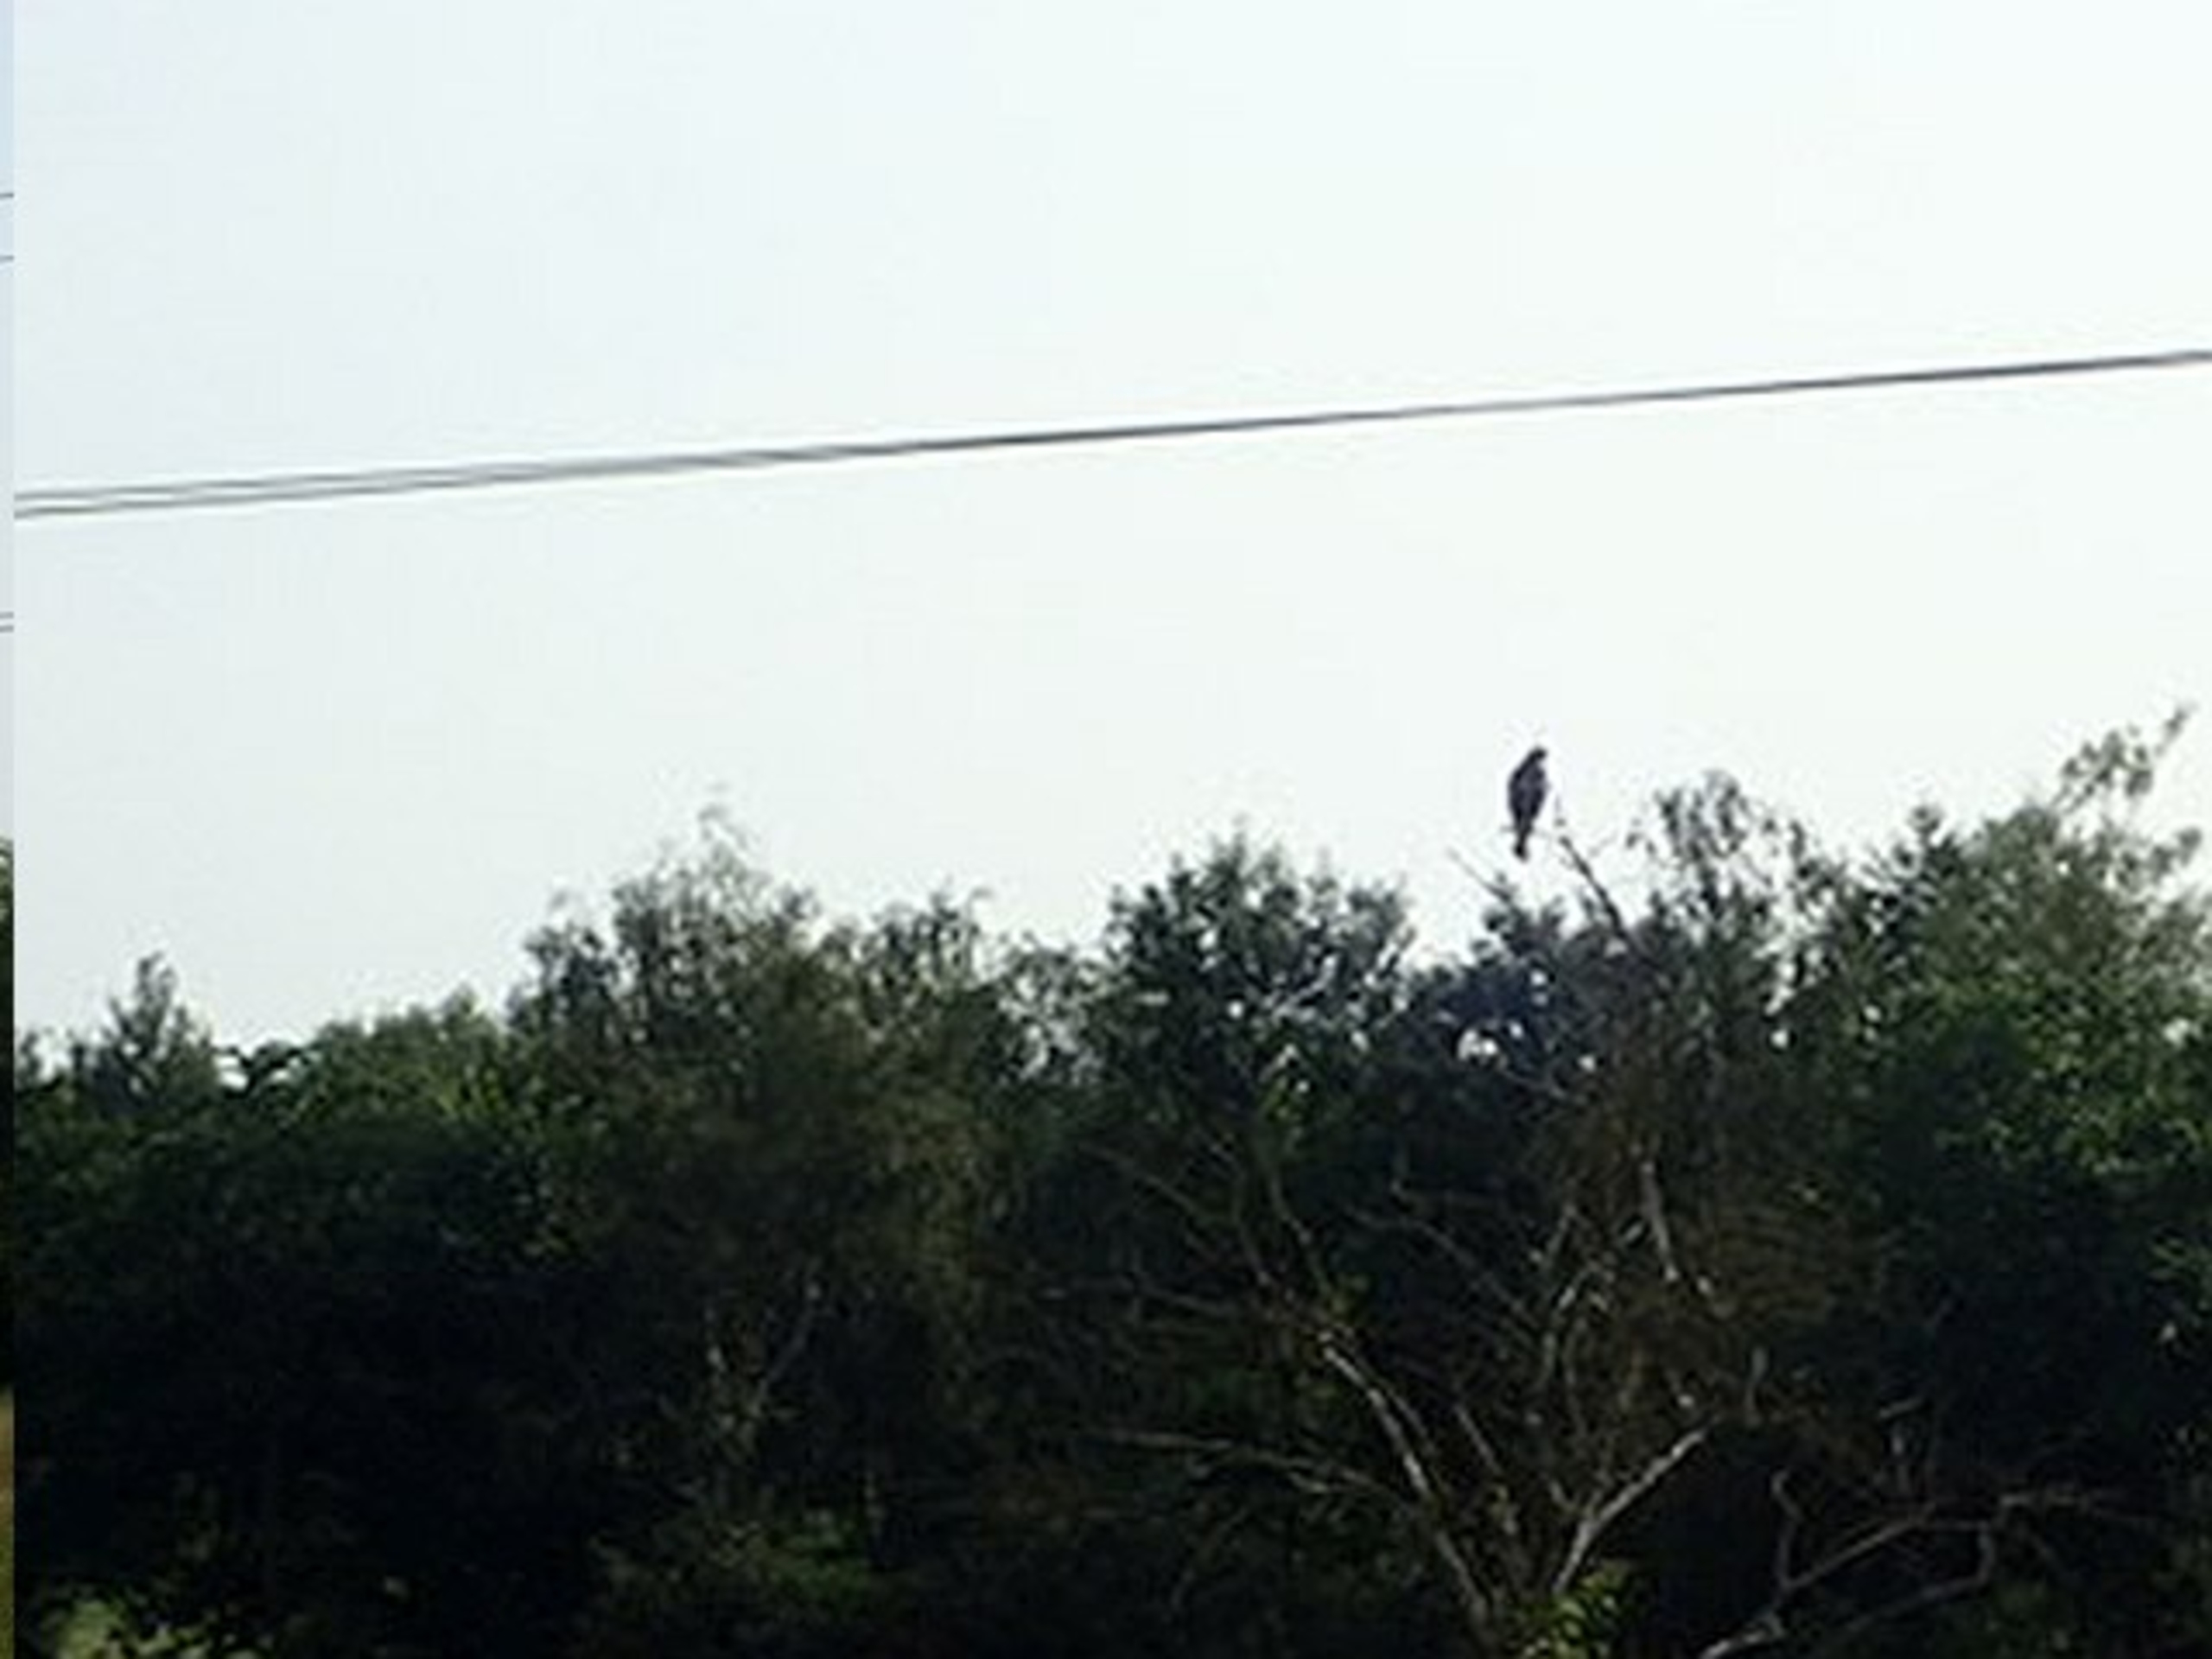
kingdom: Animalia
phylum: Chordata
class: Aves
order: Accipitriformes
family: Accipitridae
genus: Buteo
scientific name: Buteo buteo
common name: Musvåge
